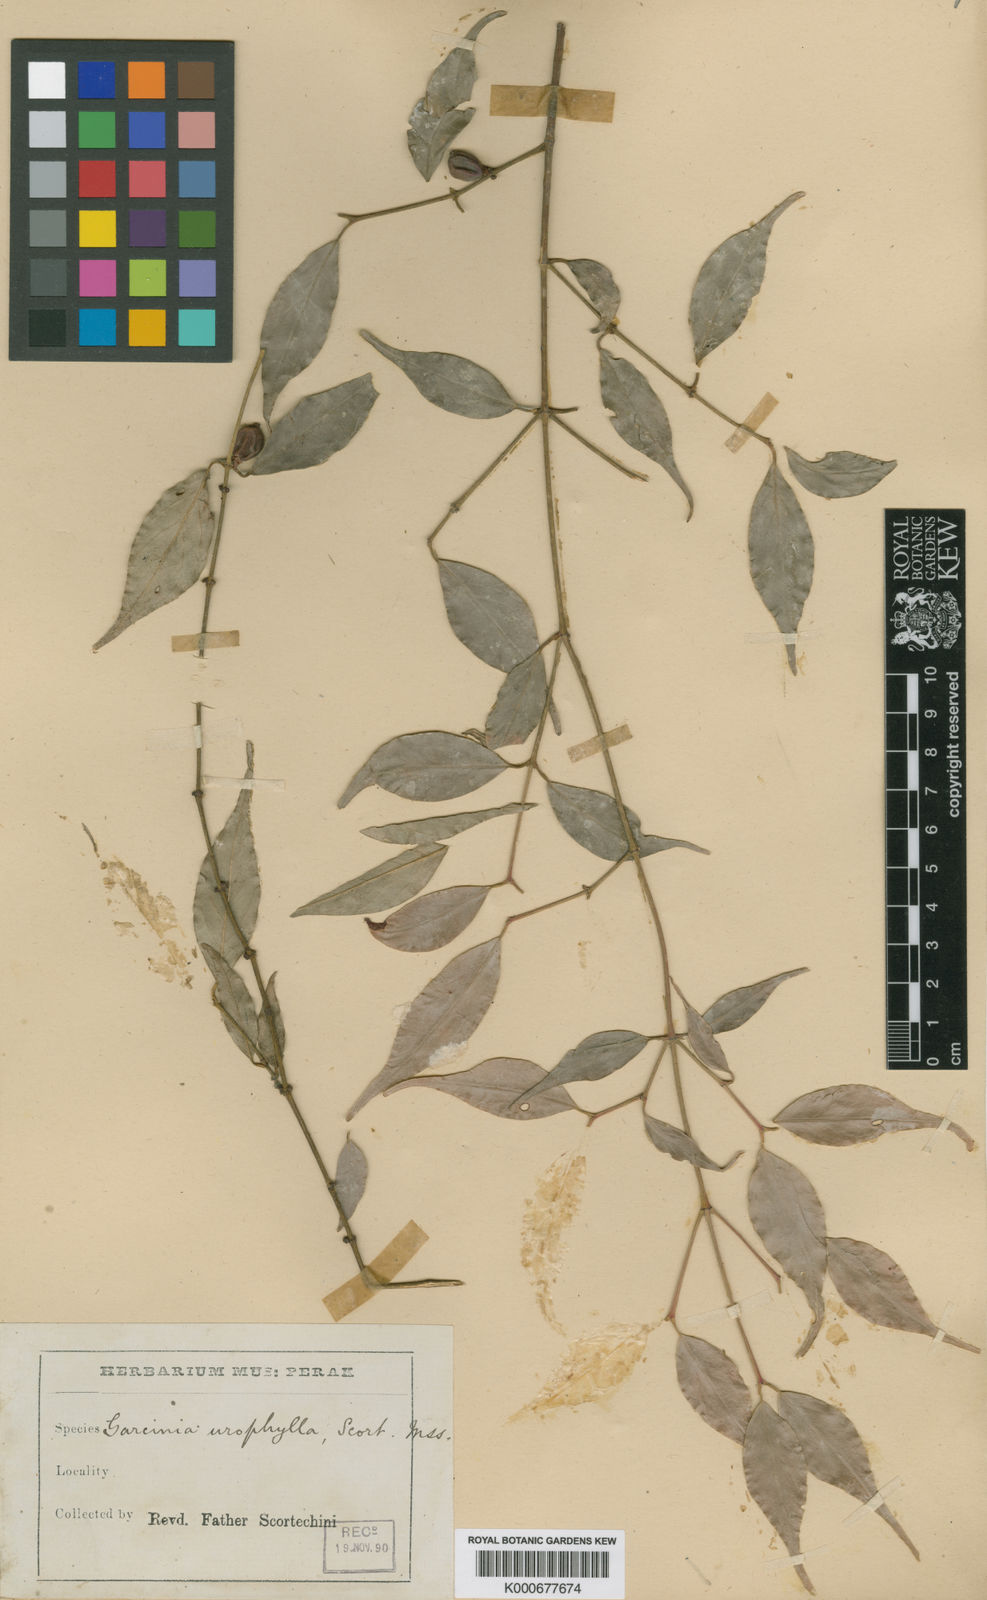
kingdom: Plantae
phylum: Tracheophyta
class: Magnoliopsida
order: Malpighiales
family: Clusiaceae
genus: Garcinia
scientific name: Garcinia urophylla
